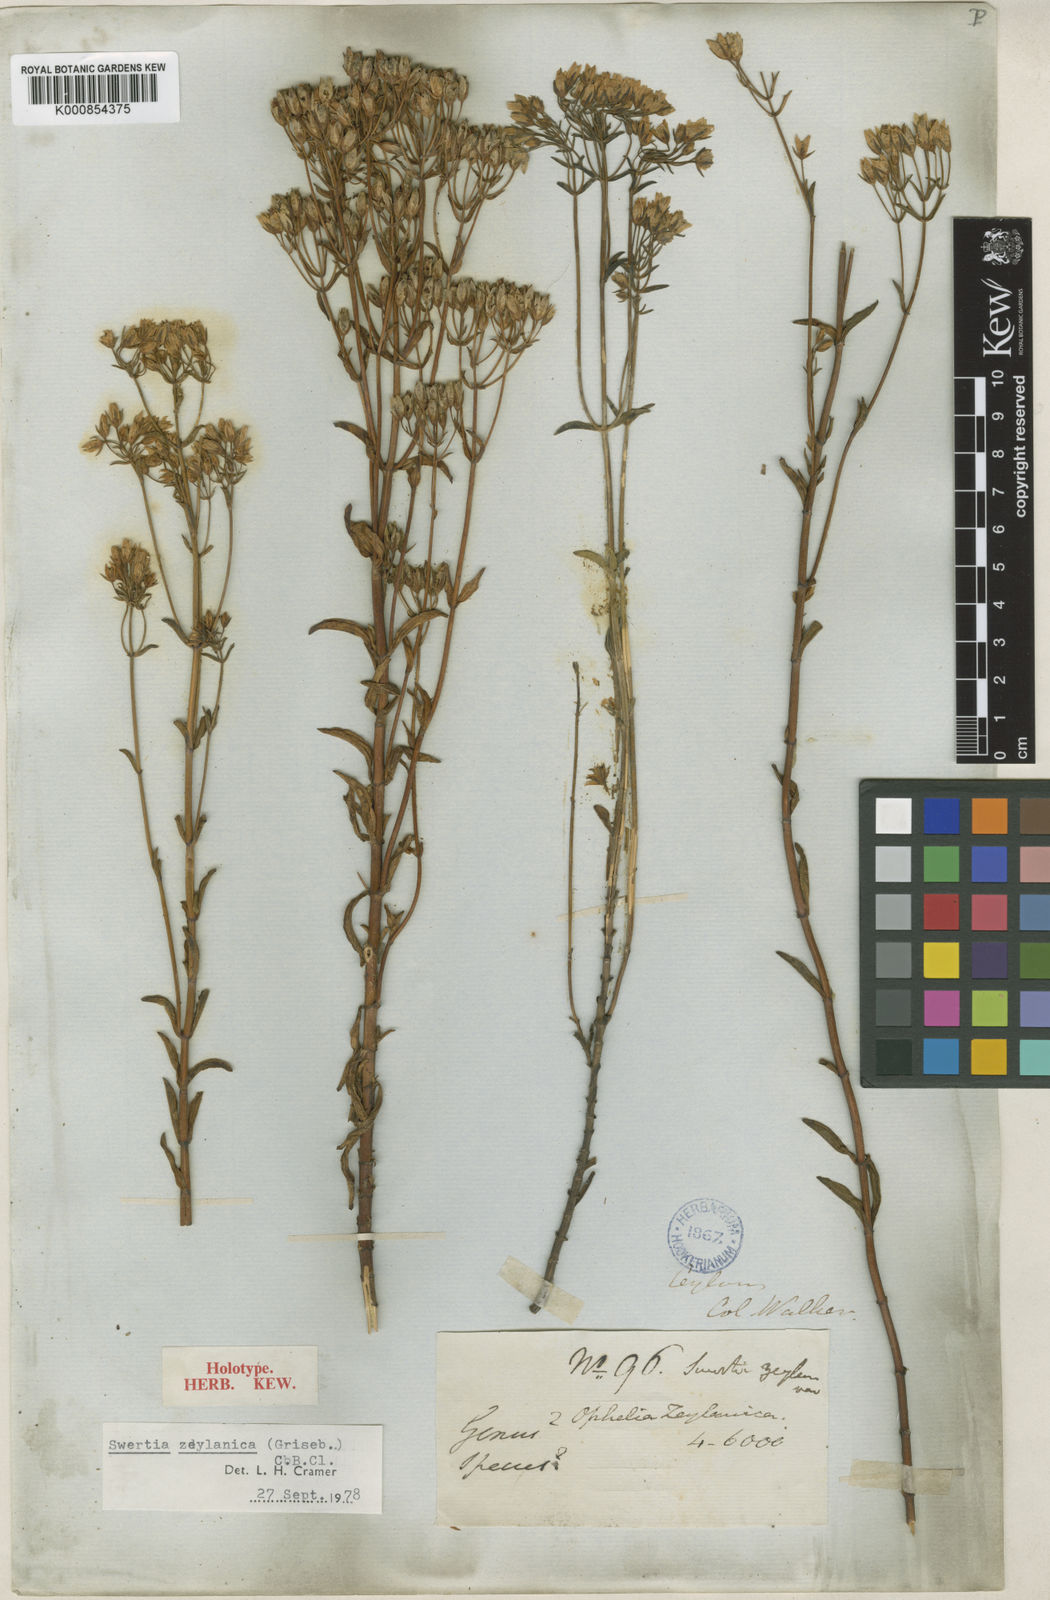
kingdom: Plantae
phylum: Tracheophyta
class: Magnoliopsida
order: Gentianales
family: Gentianaceae
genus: Swertia
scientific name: Swertia
